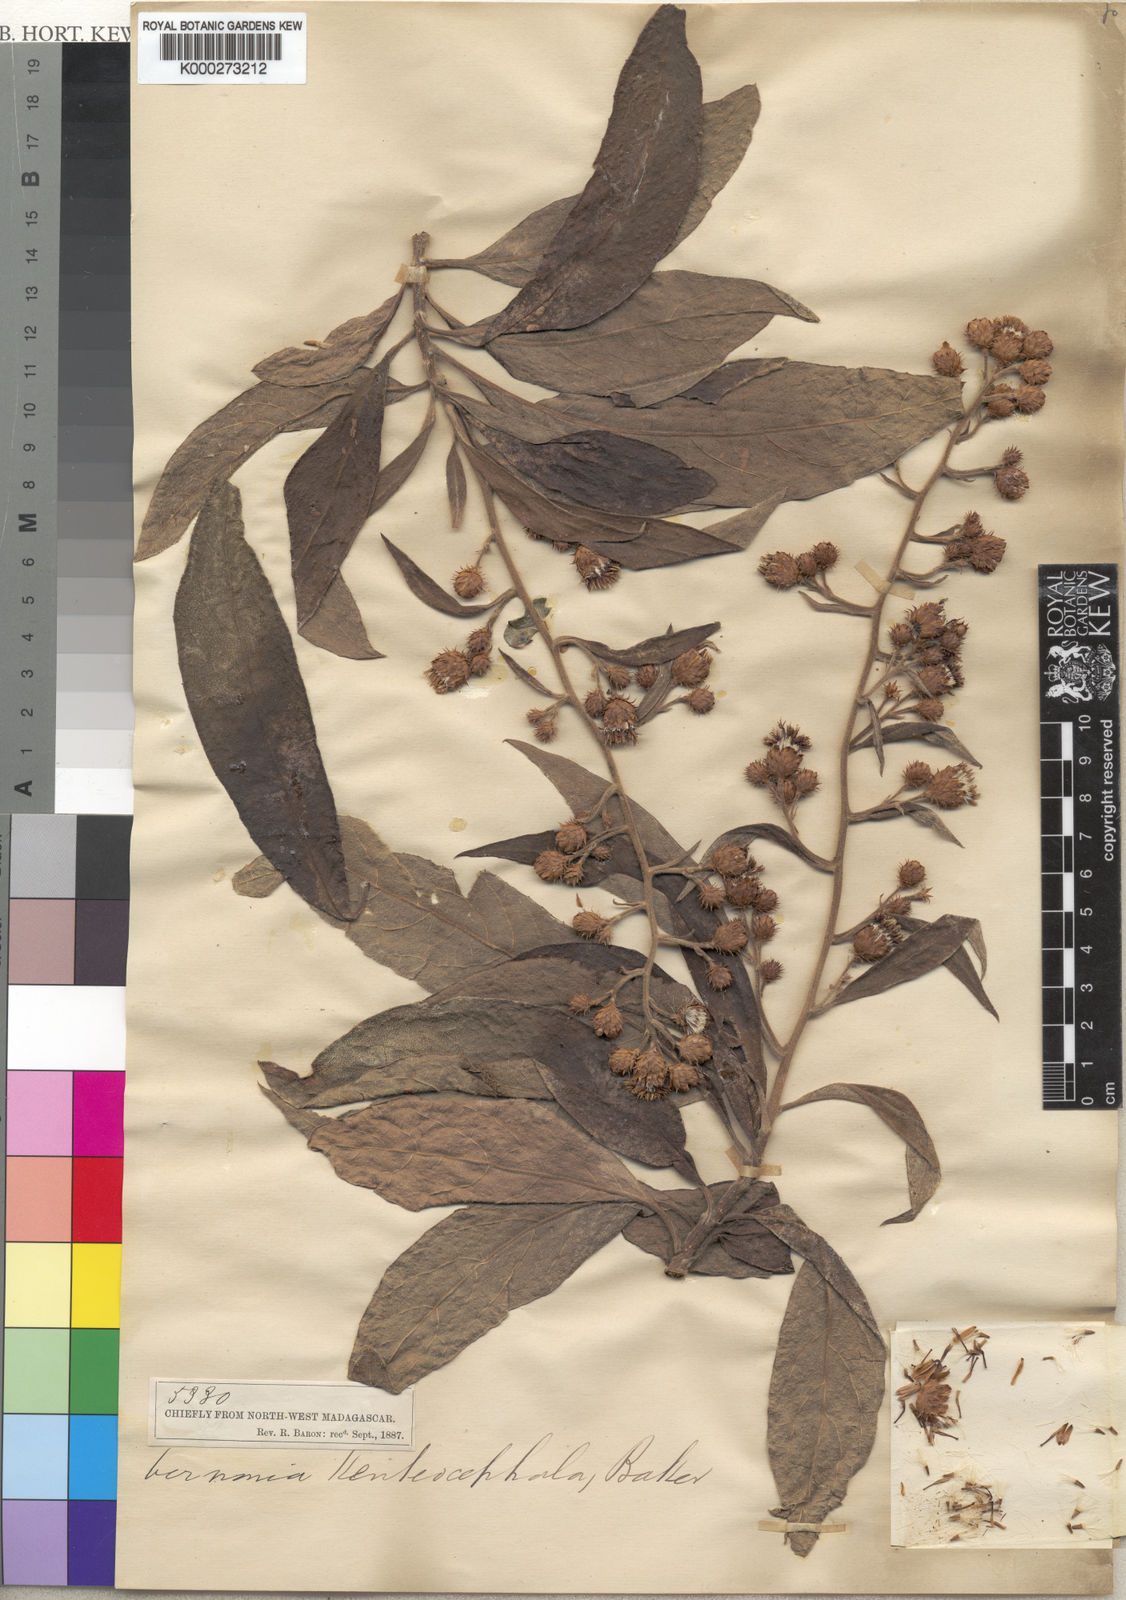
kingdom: Plantae
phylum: Tracheophyta
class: Magnoliopsida
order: Asterales
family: Asteraceae
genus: Vernonia
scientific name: Vernonia kenteocephala
